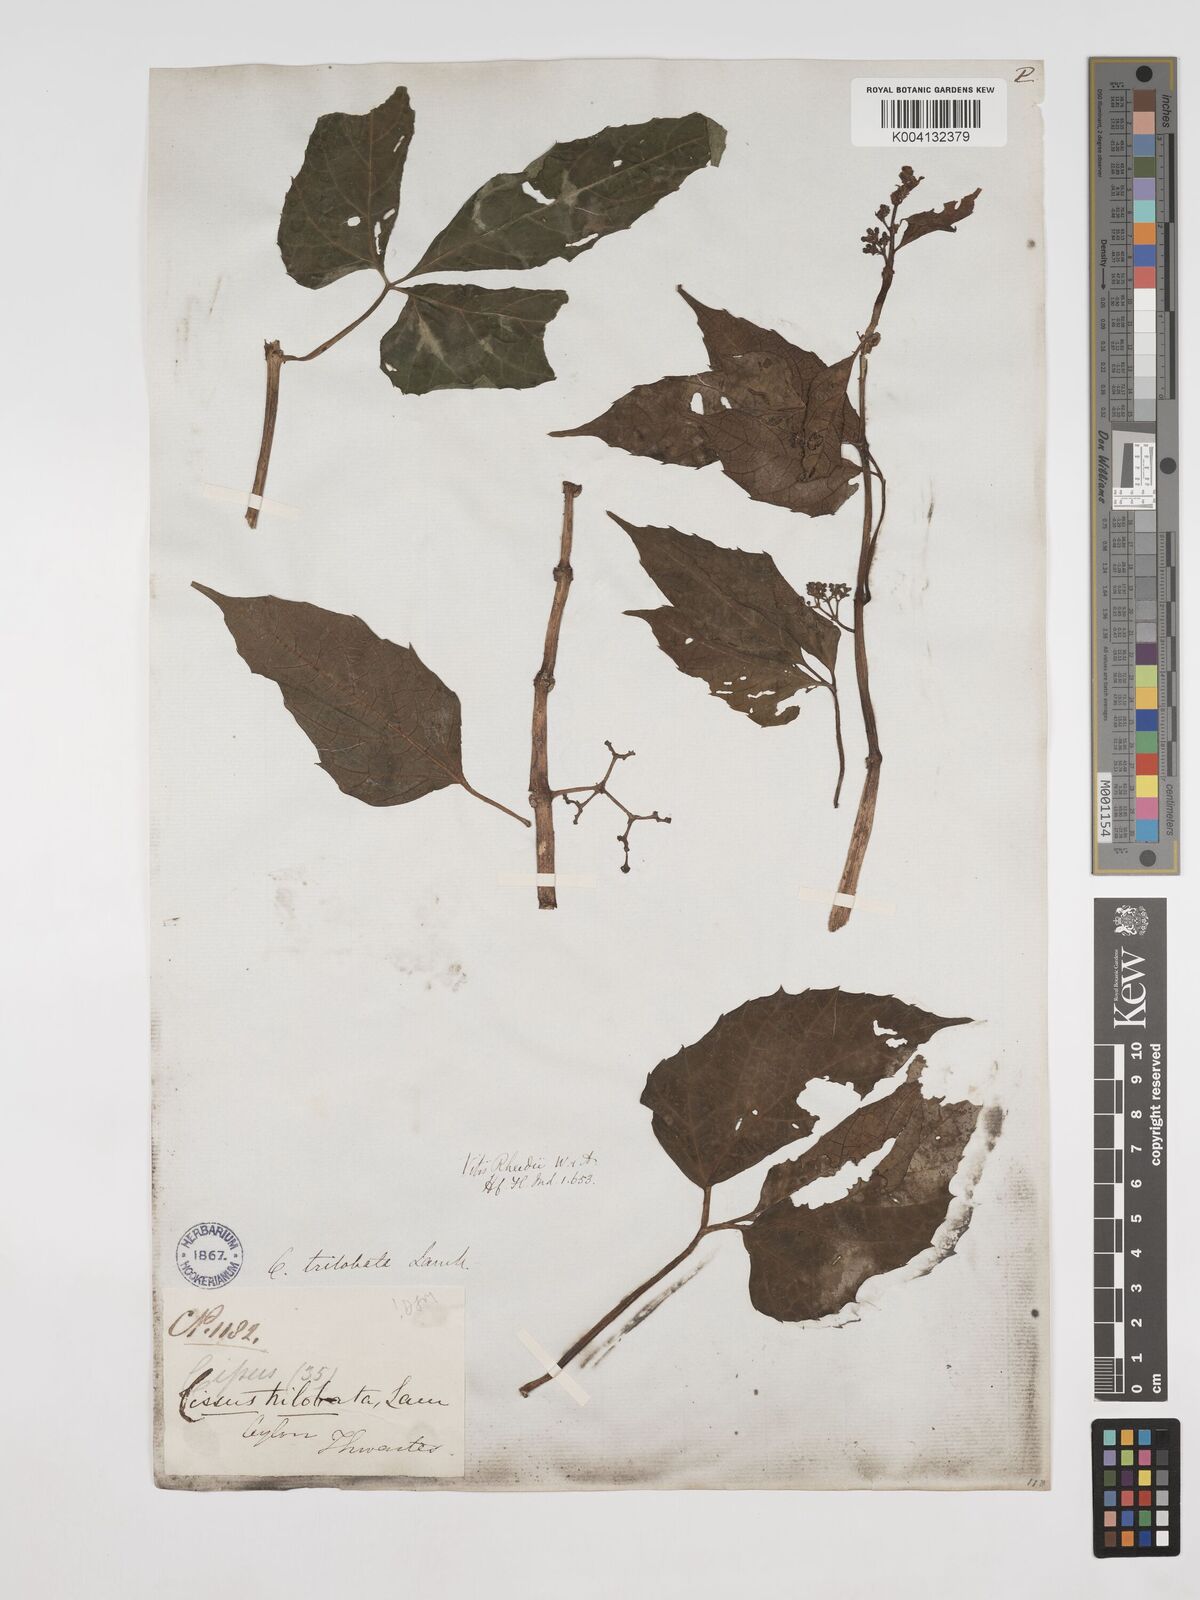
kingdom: Plantae
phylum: Tracheophyta
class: Magnoliopsida
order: Vitales
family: Vitaceae
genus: Cissus
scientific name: Cissus trilobata
